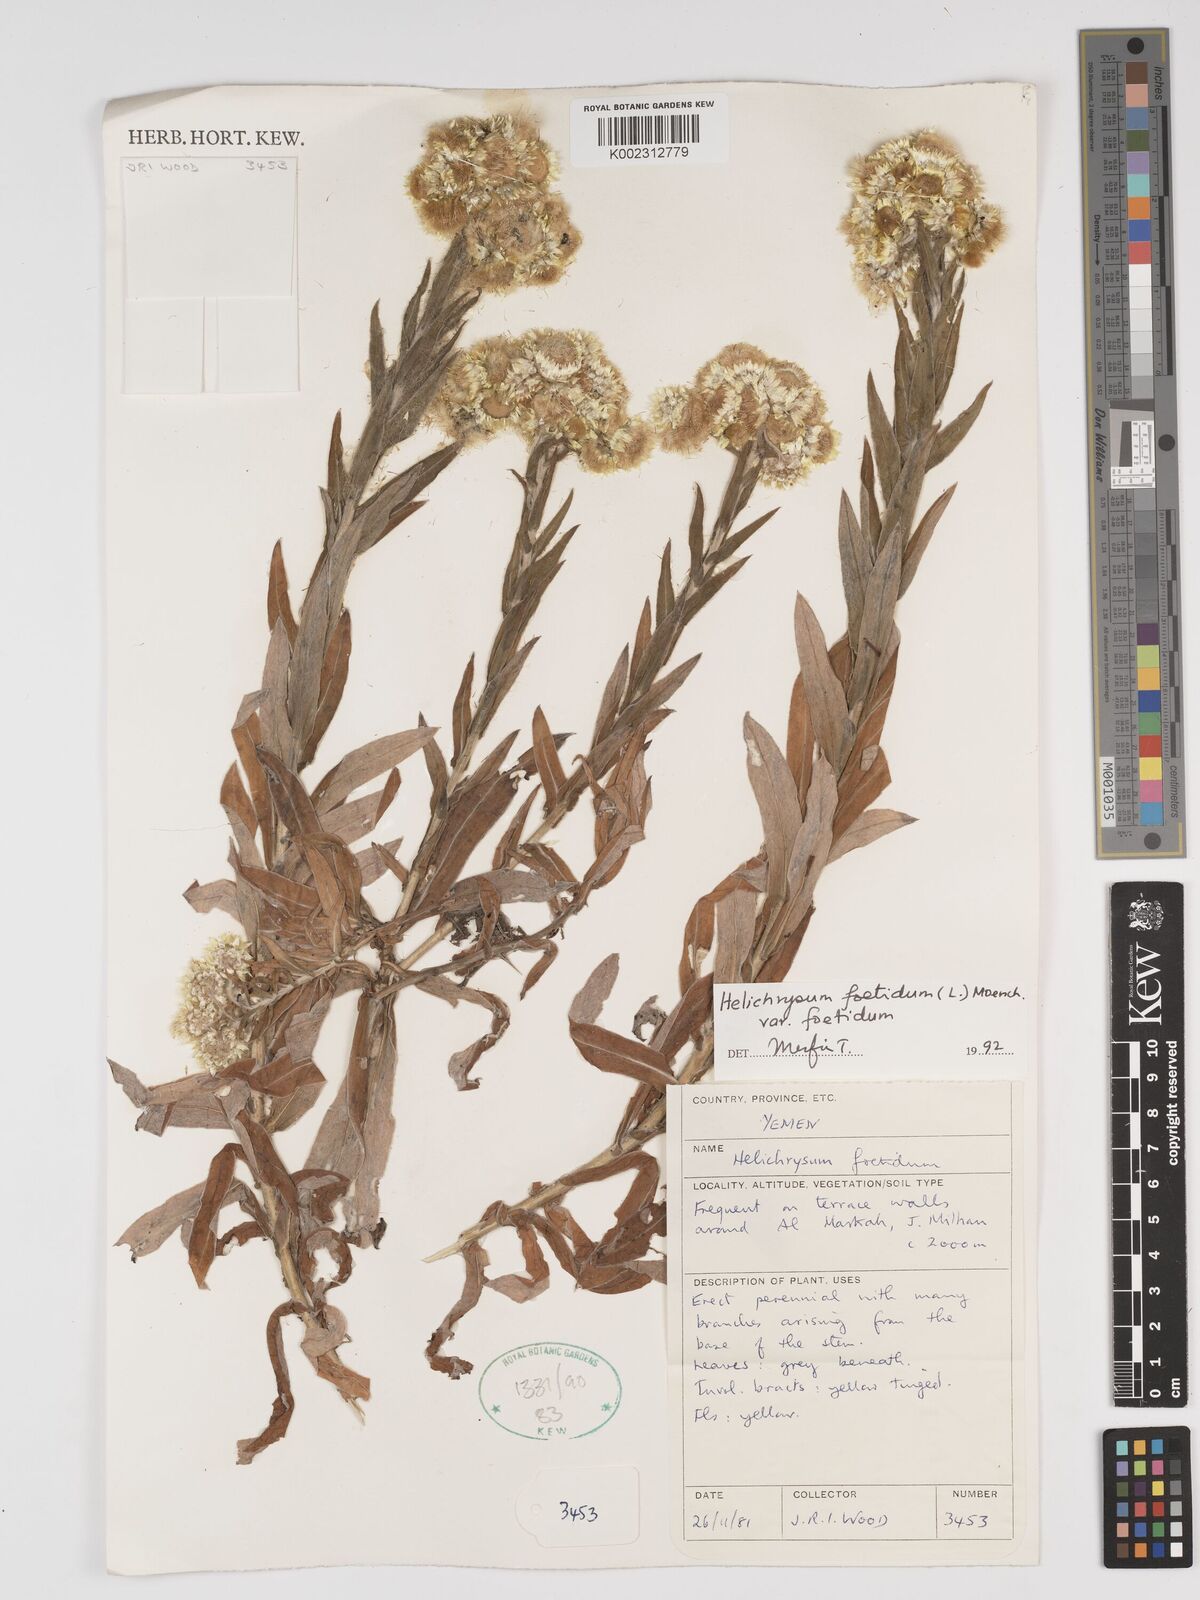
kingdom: Plantae
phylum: Tracheophyta
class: Magnoliopsida
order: Asterales
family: Asteraceae
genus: Helichrysum
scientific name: Helichrysum foetidum
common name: Stinking everlasting
